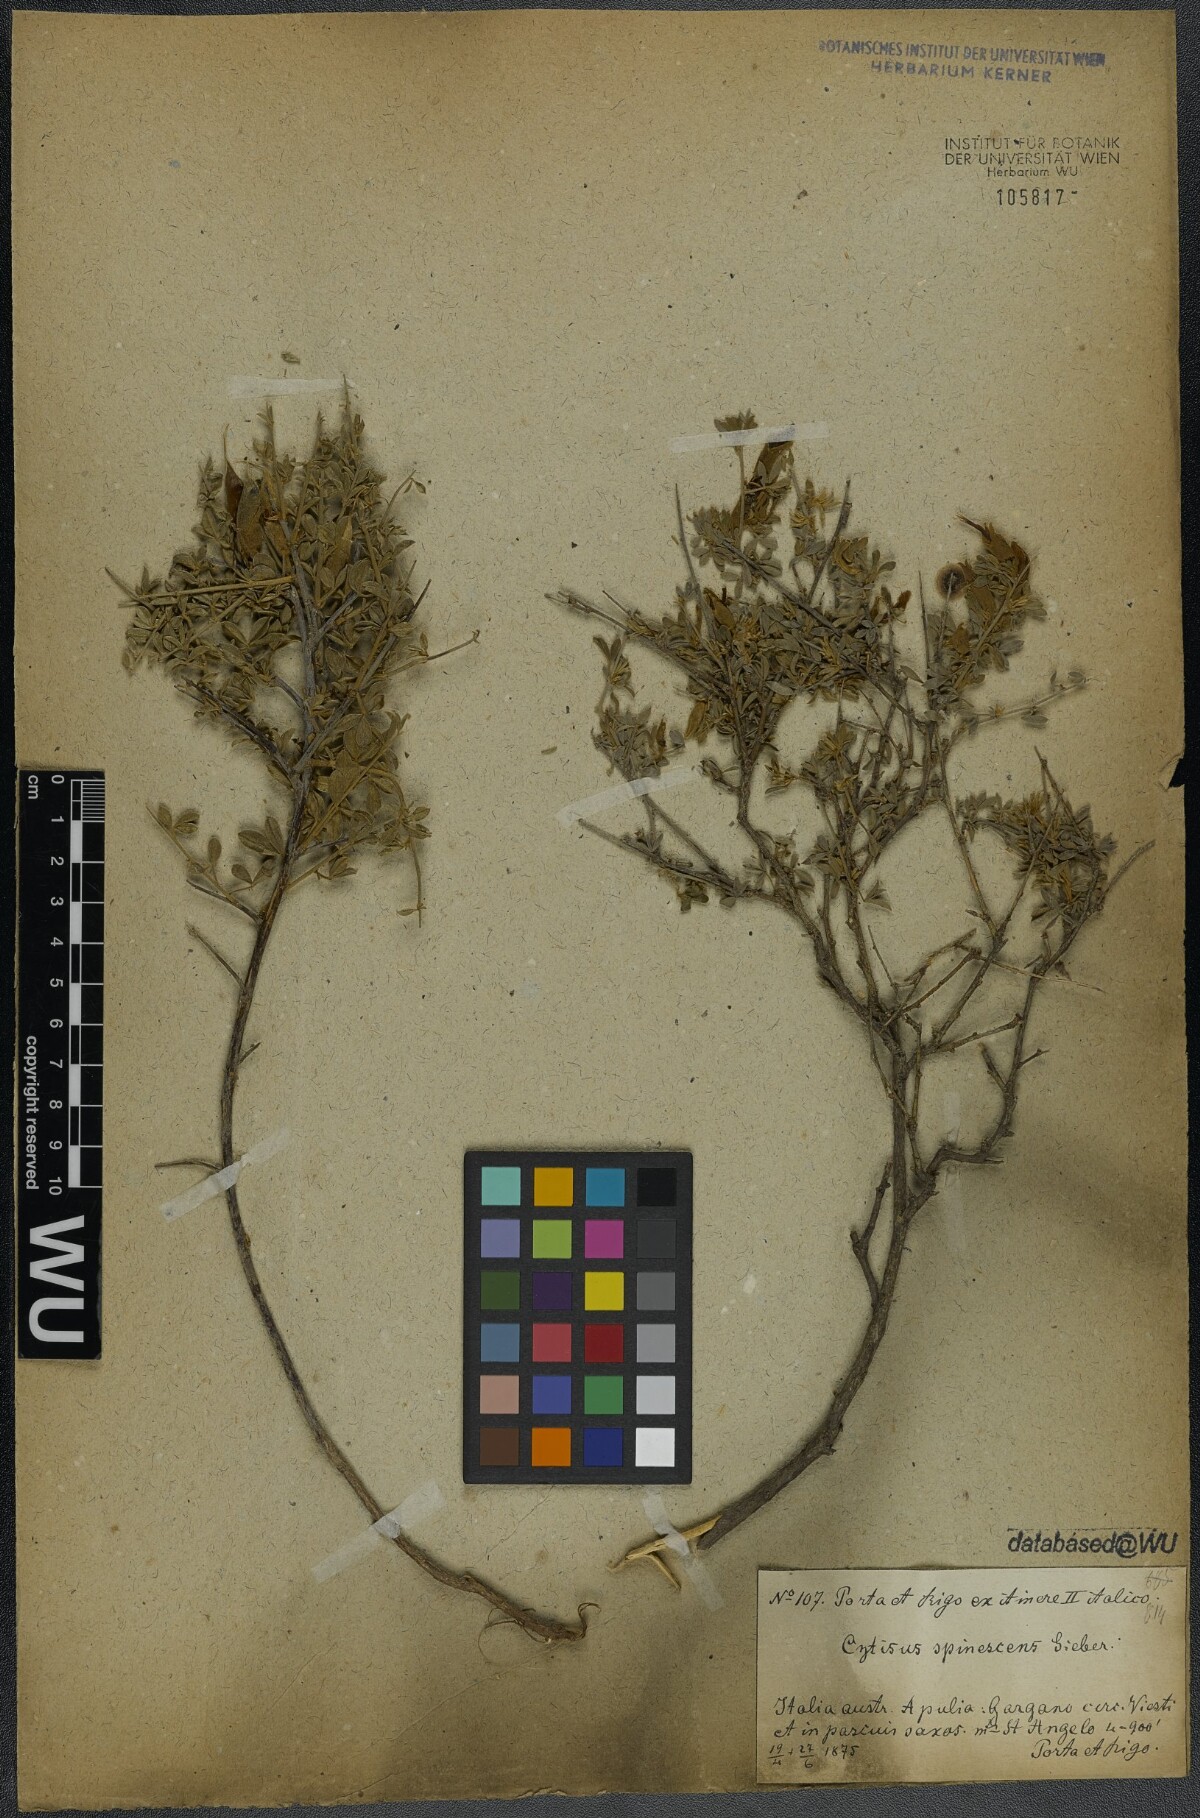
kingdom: Plantae
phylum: Tracheophyta
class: Magnoliopsida
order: Fabales
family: Fabaceae
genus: Chamaecytisus
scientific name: Chamaecytisus spinescens
